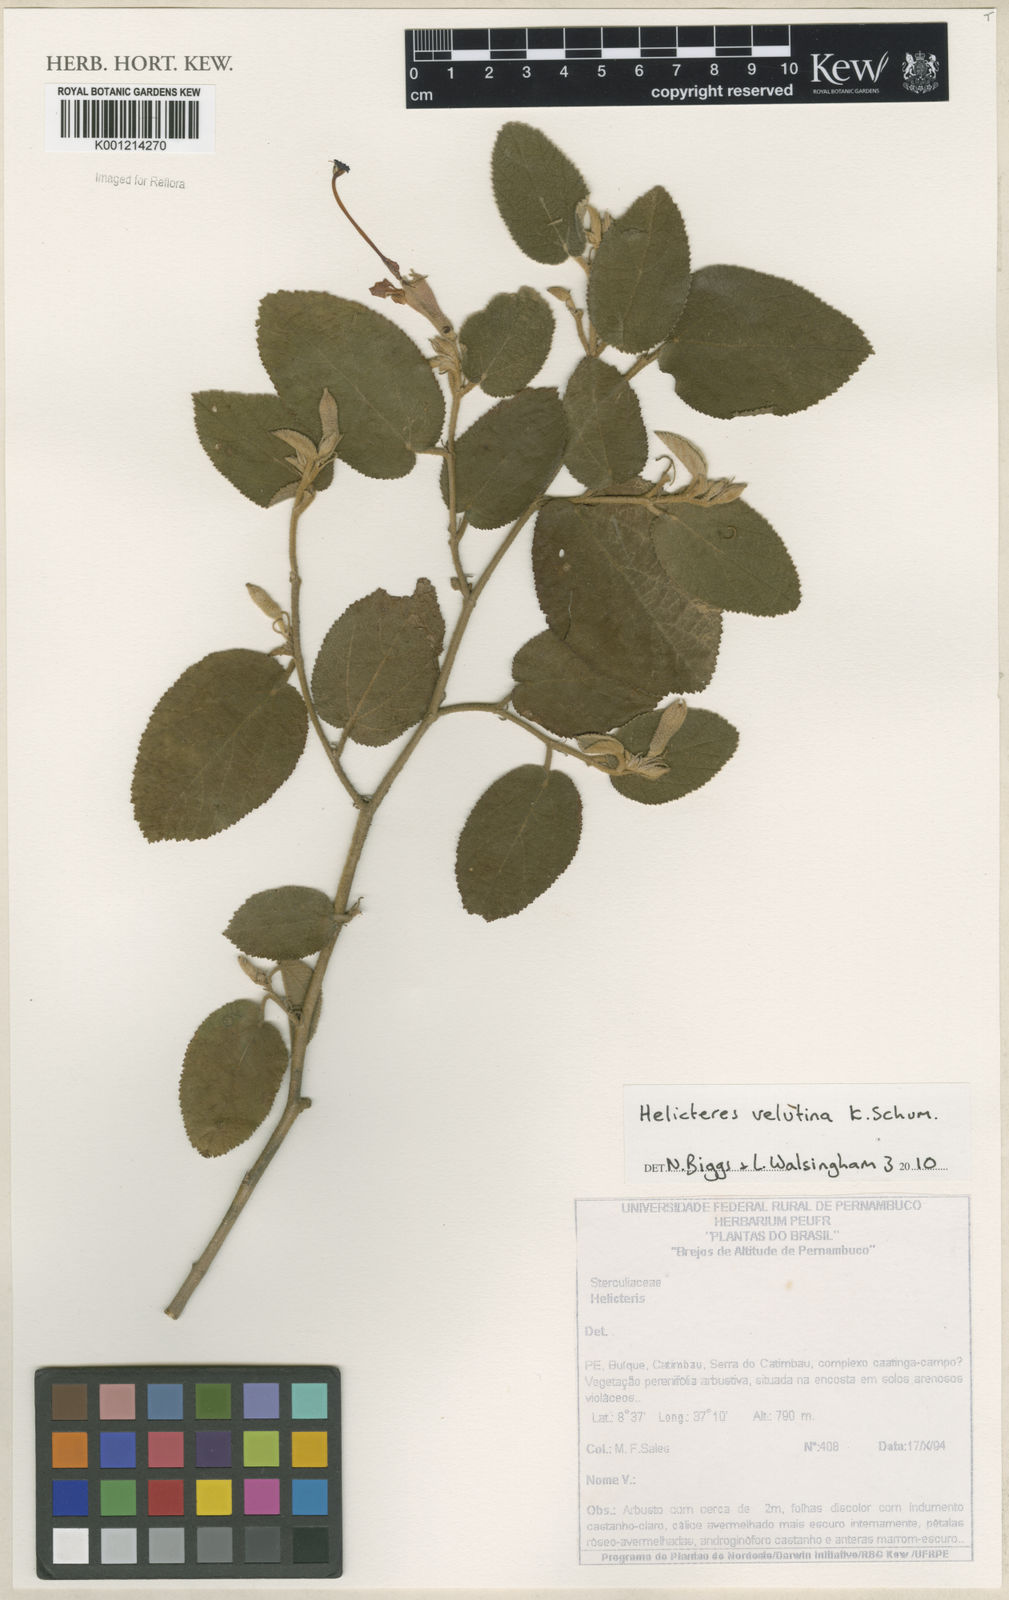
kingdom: Plantae
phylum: Tracheophyta
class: Magnoliopsida
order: Malvales
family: Malvaceae
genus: Helicteres
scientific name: Helicteres velutina
